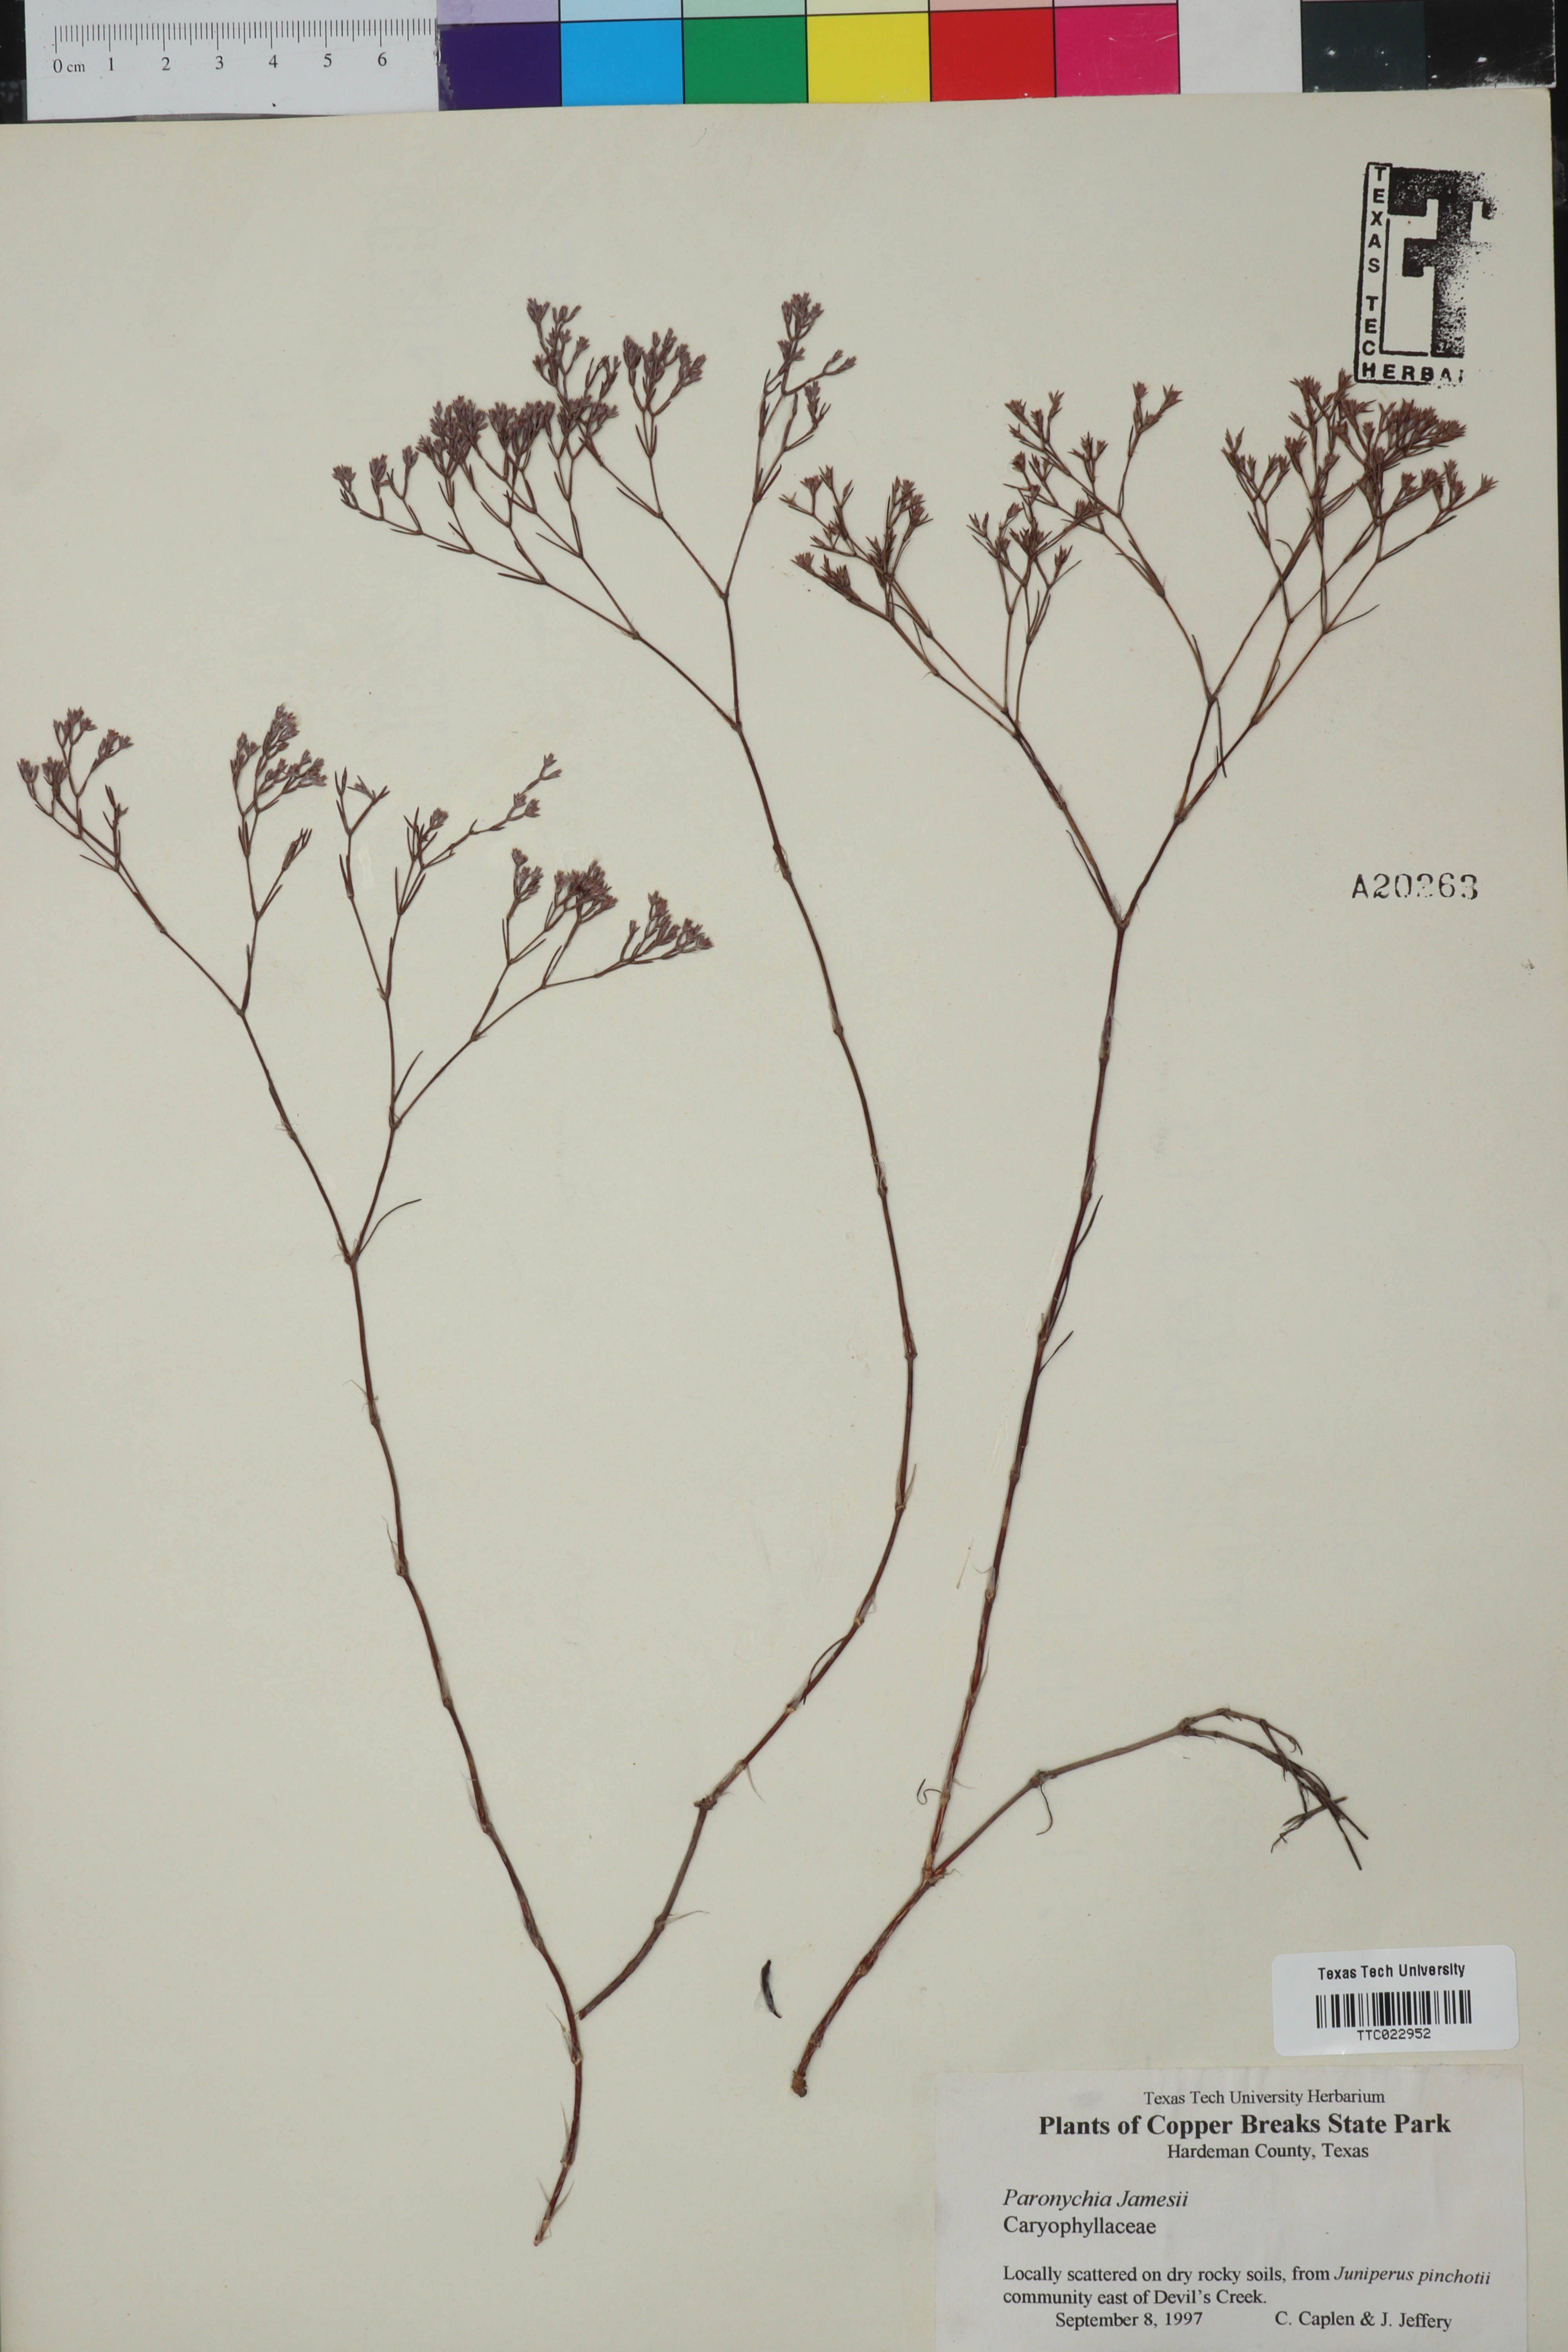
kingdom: Plantae
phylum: Tracheophyta
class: Magnoliopsida
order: Caryophyllales
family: Caryophyllaceae
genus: Paronychia
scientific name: Paronychia jamesii
